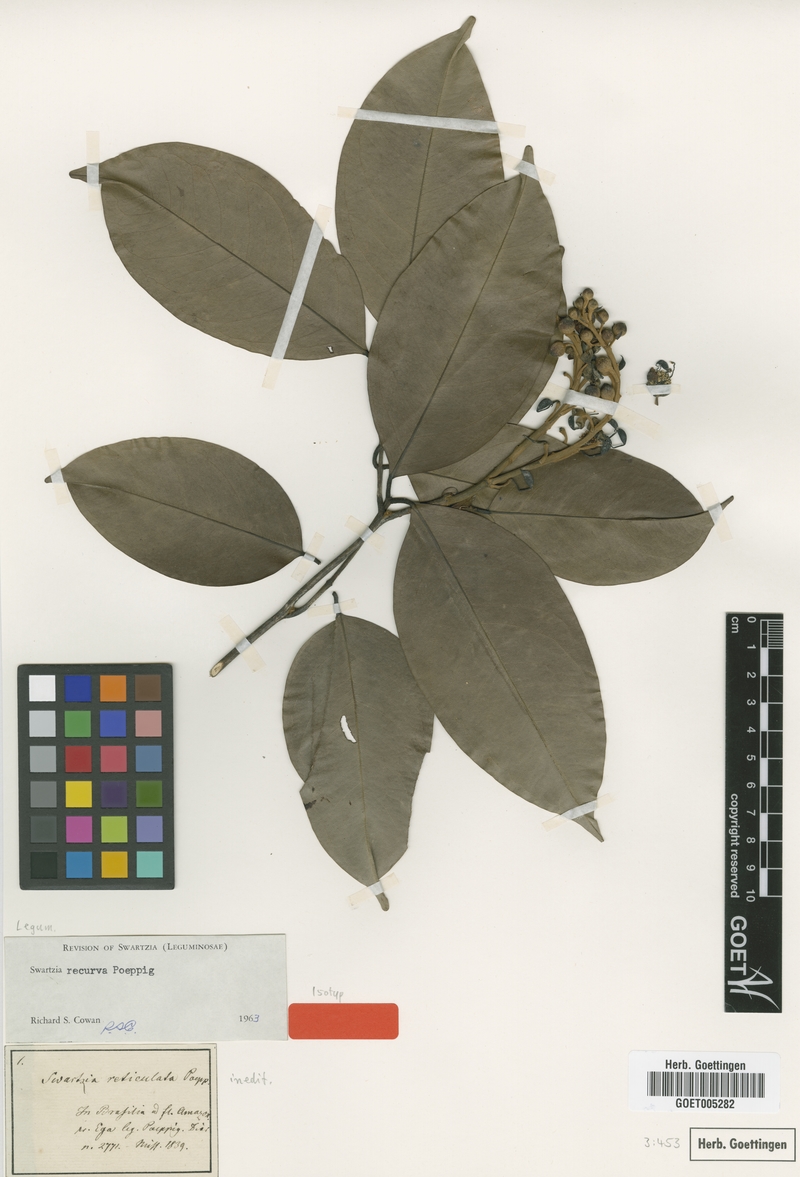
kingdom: Plantae
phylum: Tracheophyta
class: Magnoliopsida
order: Fabales
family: Fabaceae
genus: Swartzia
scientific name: Swartzia recurva
